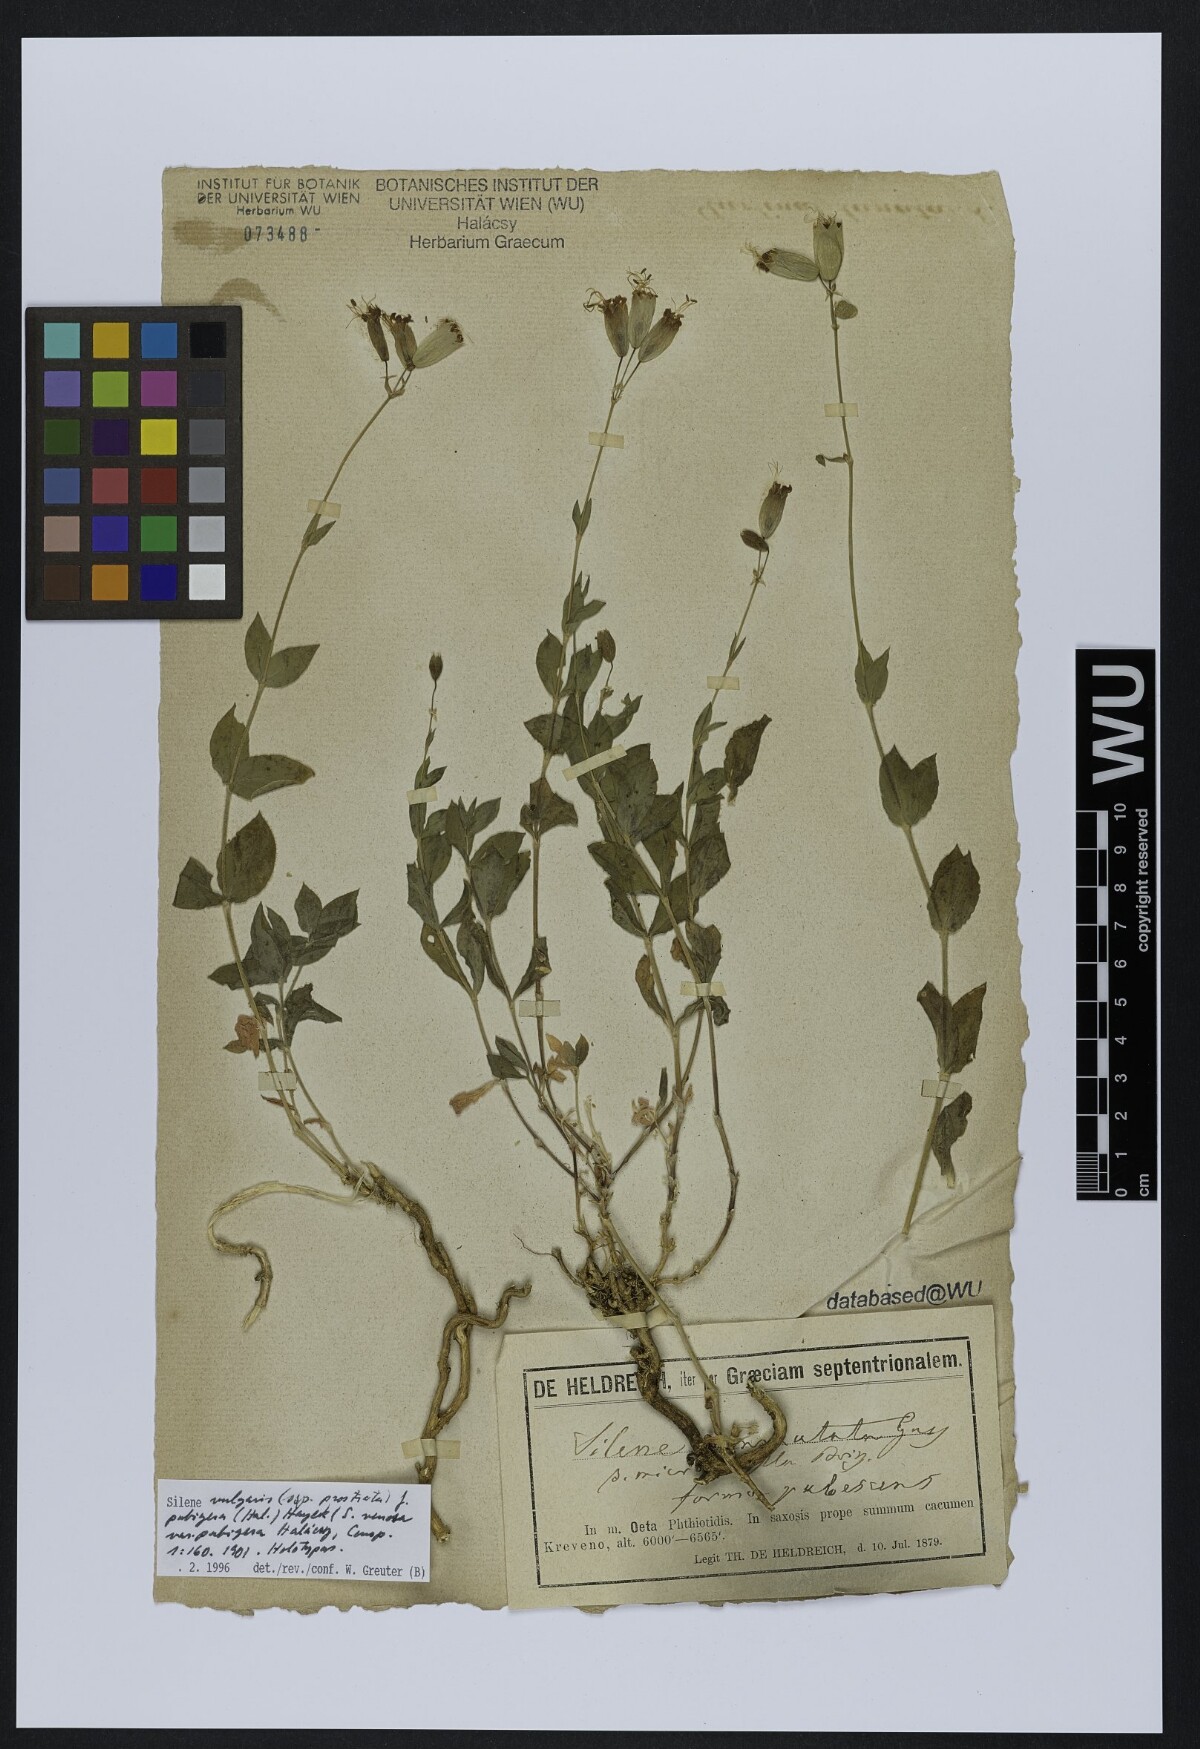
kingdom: Plantae
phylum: Tracheophyta
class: Magnoliopsida
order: Caryophyllales
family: Caryophyllaceae
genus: Silene
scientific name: Silene glareosa
